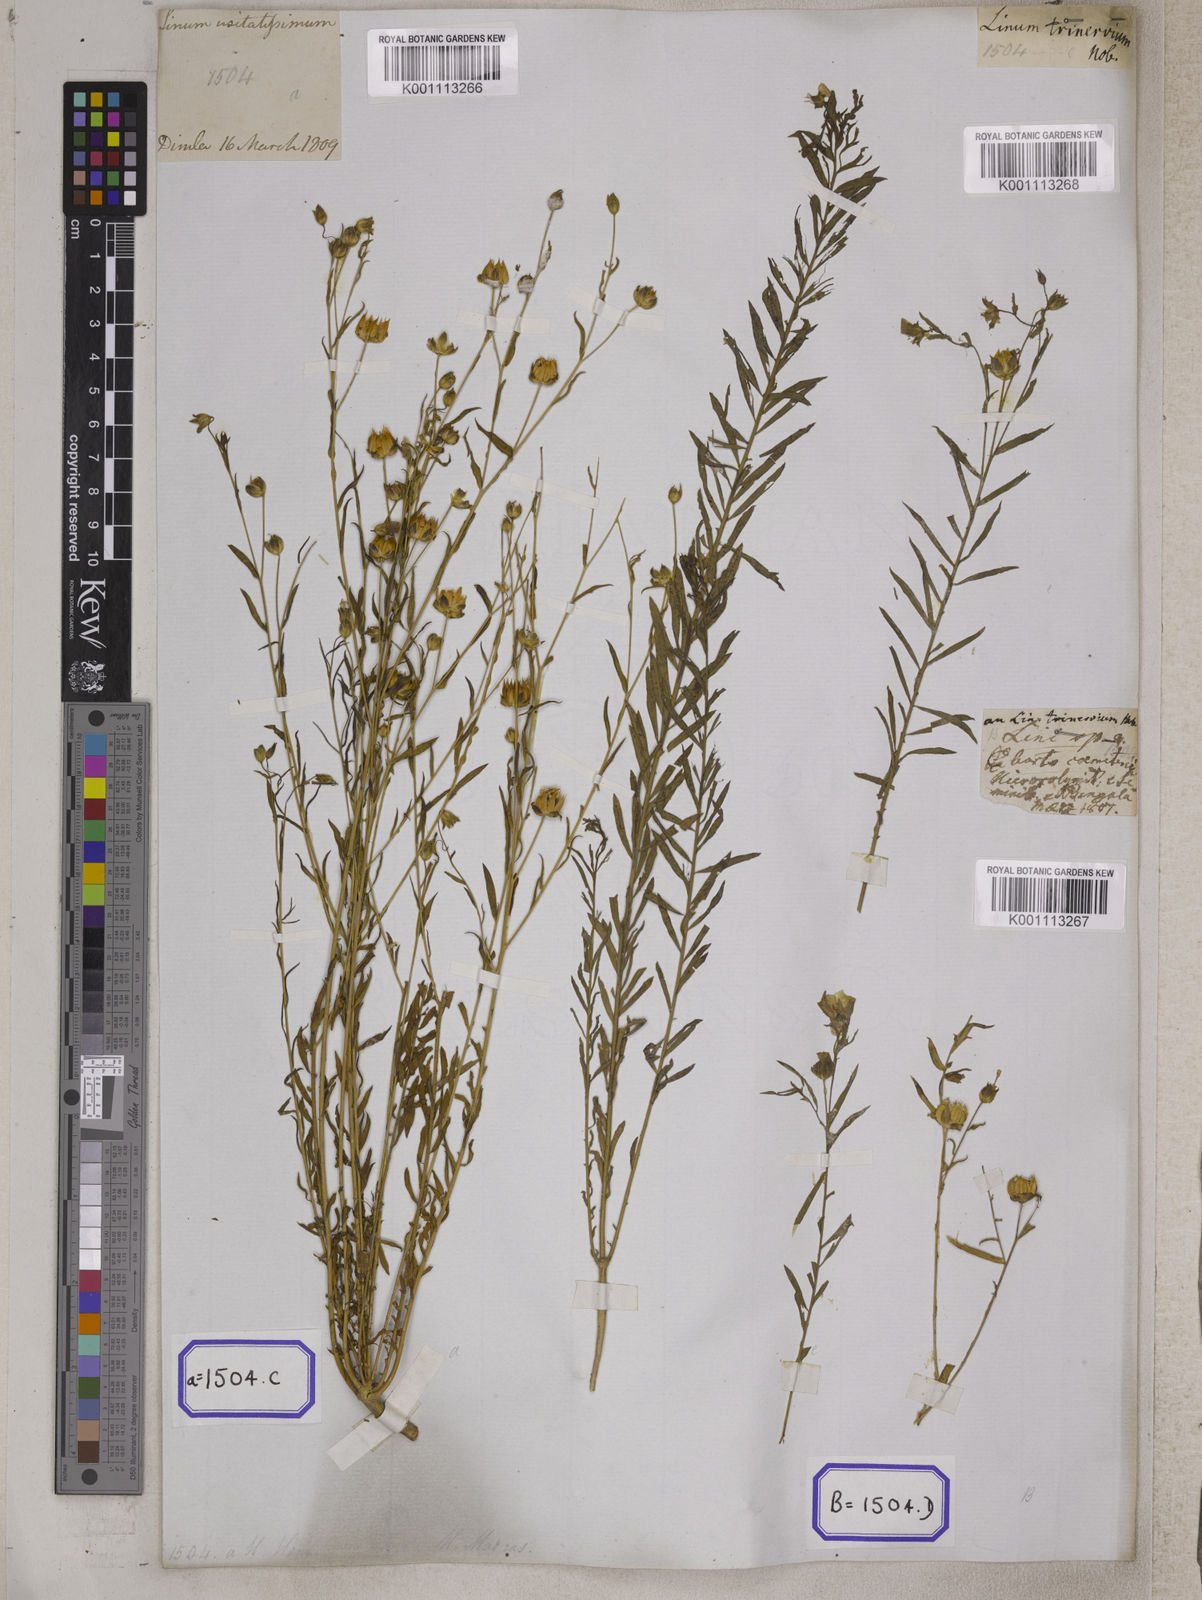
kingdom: Plantae
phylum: Tracheophyta
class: Magnoliopsida
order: Malpighiales
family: Linaceae
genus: Linum
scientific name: Linum usitatissimum
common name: Flax
